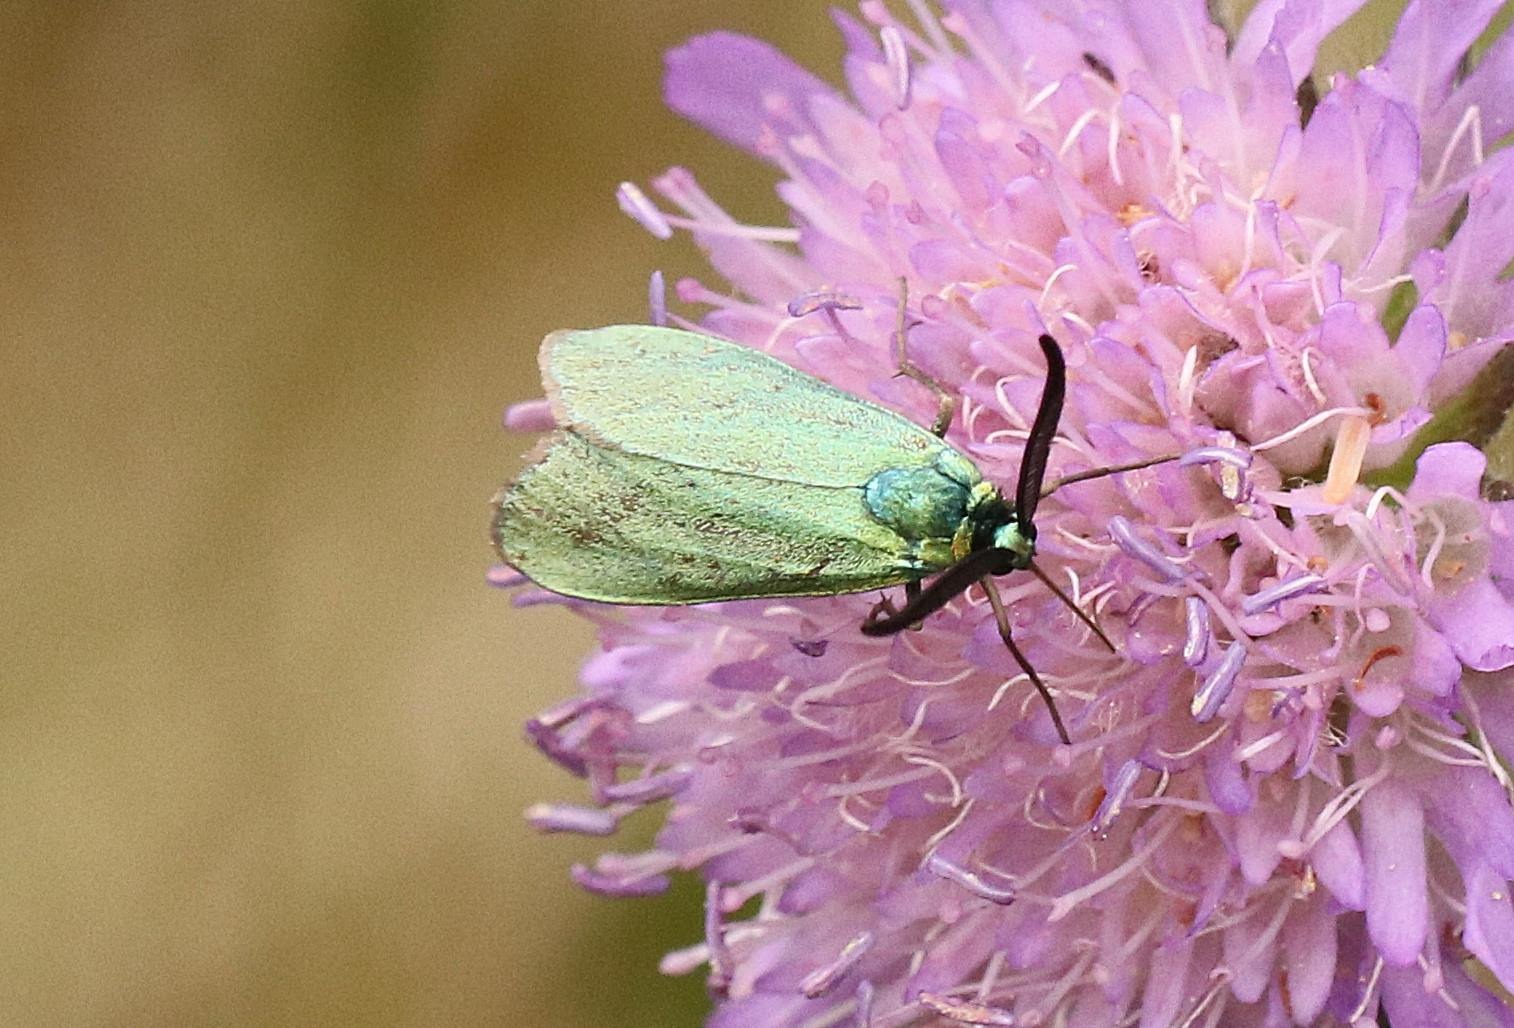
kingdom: Animalia
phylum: Arthropoda
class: Insecta
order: Lepidoptera
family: Zygaenidae
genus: Adscita
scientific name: Adscita statices
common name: Metalvinge
